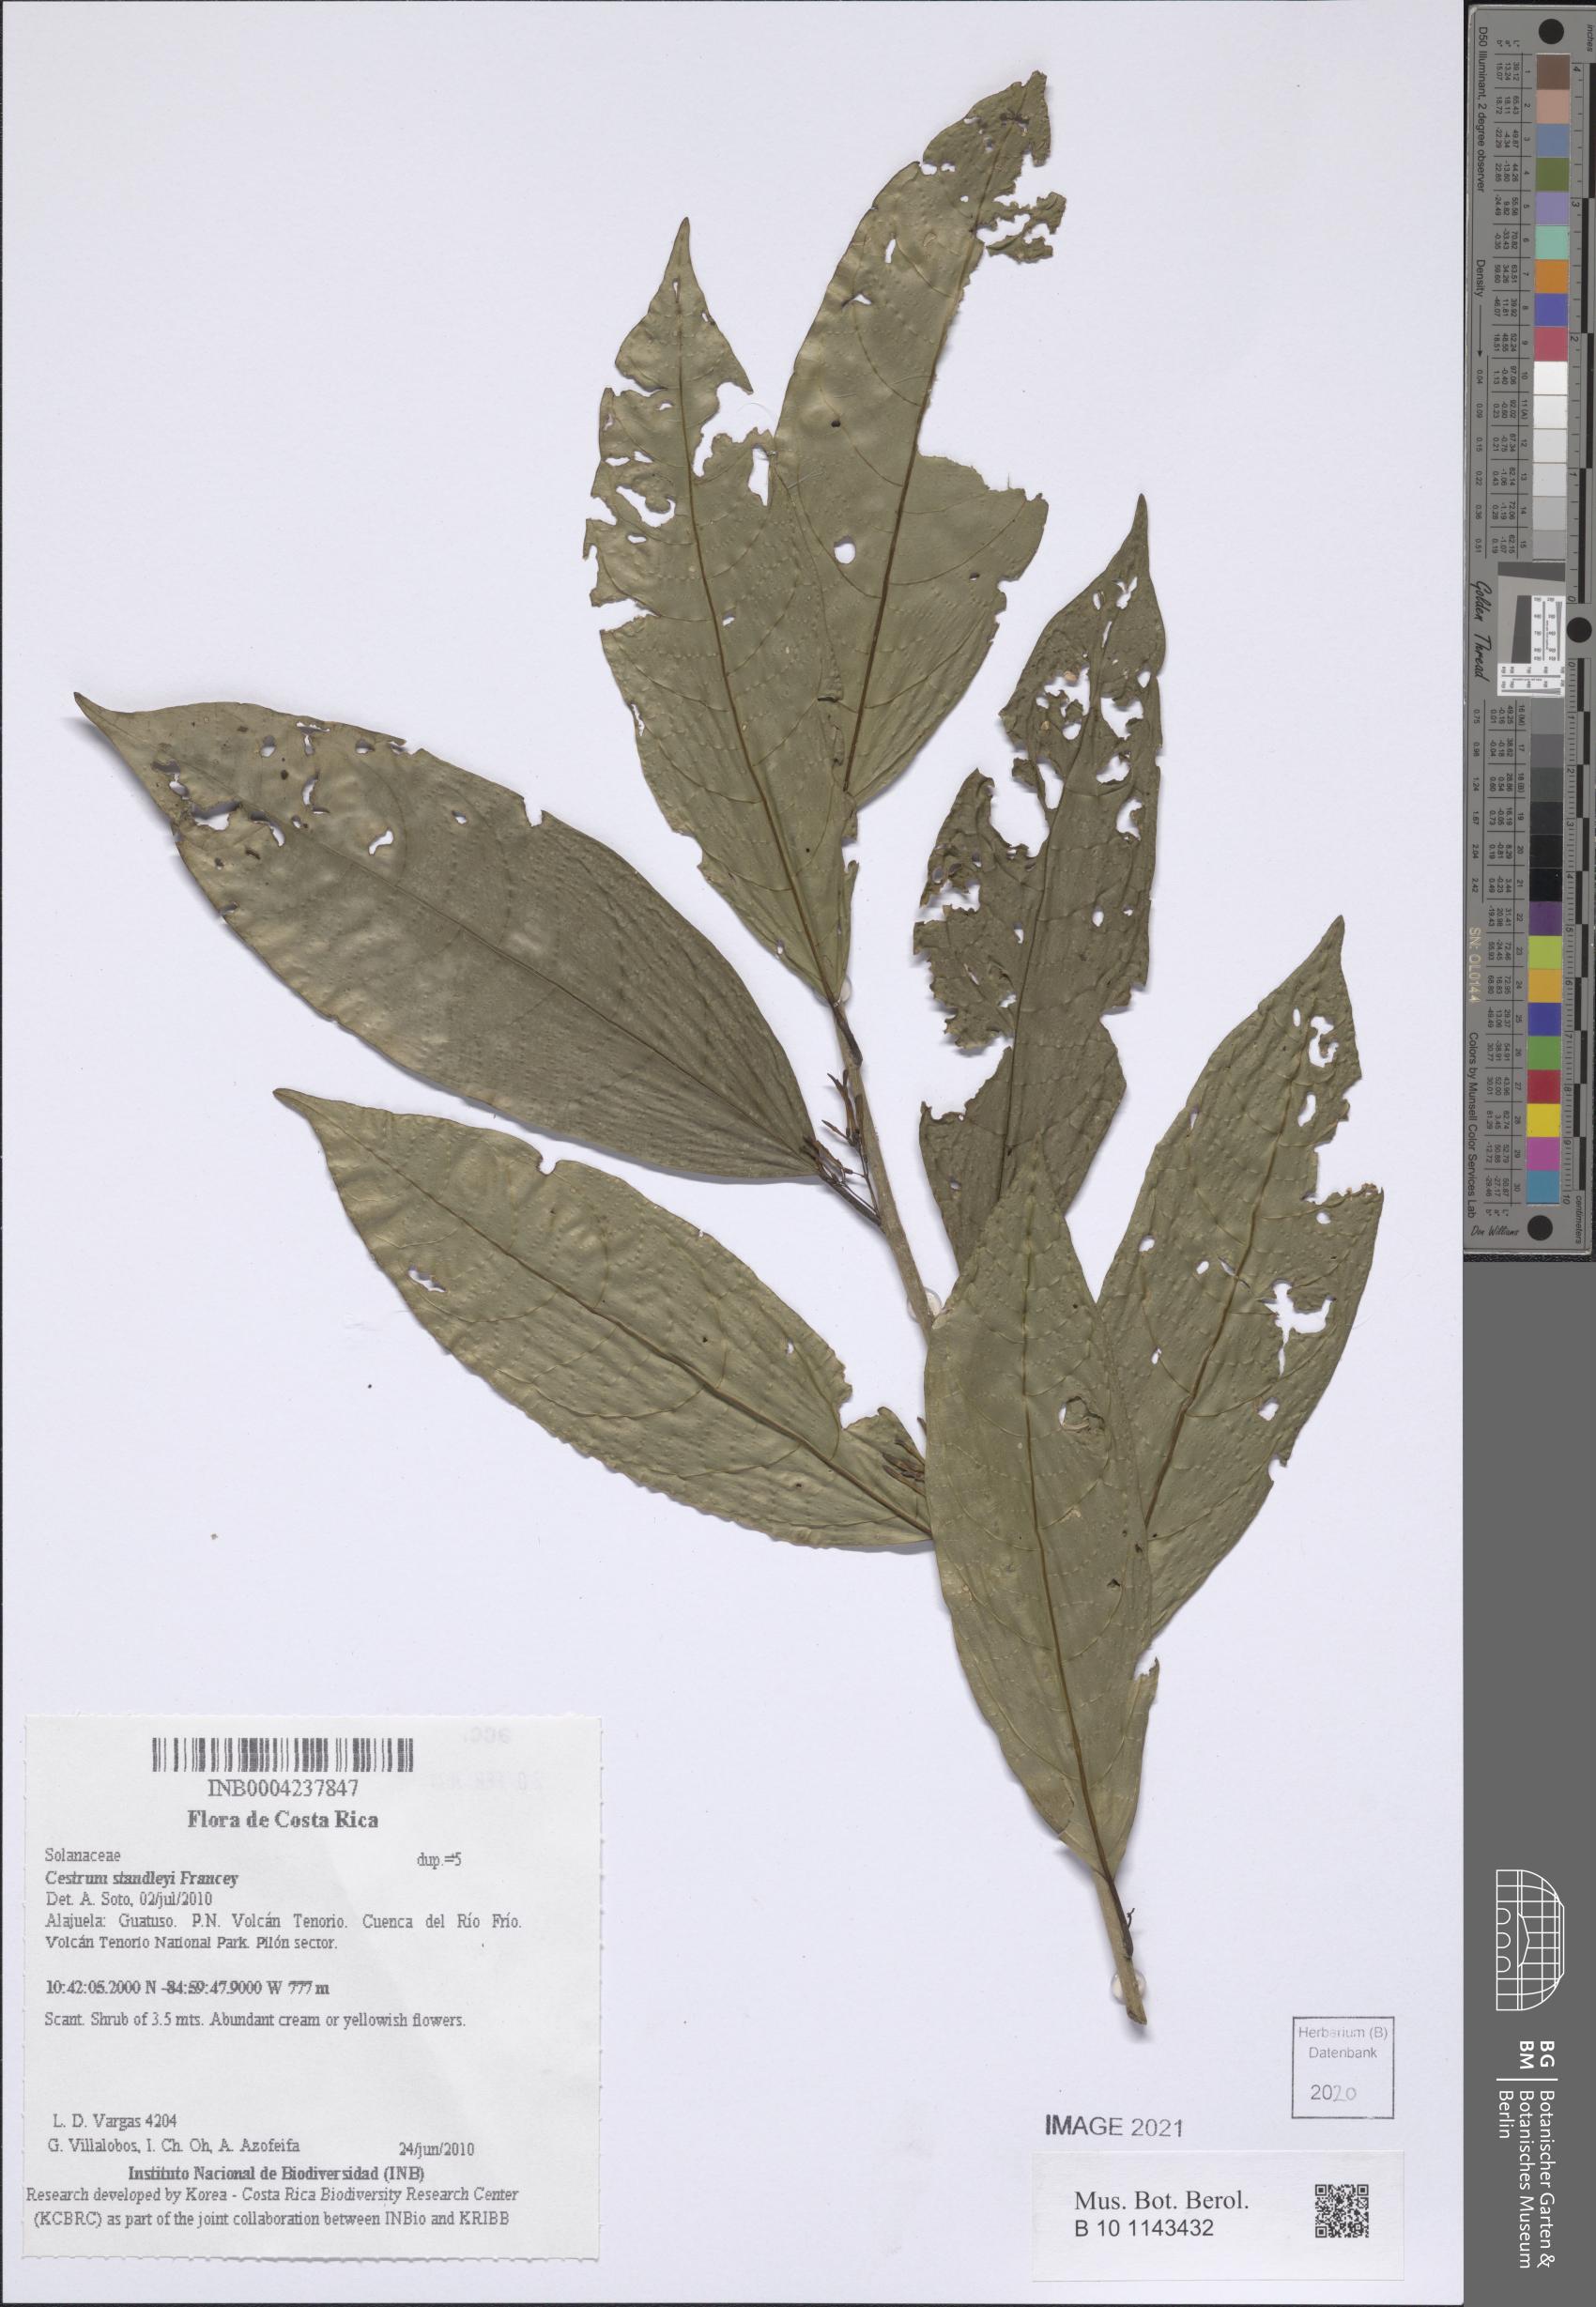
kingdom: Plantae
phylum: Tracheophyta
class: Magnoliopsida
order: Solanales
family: Solanaceae
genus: Cestrum
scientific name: Cestrum
